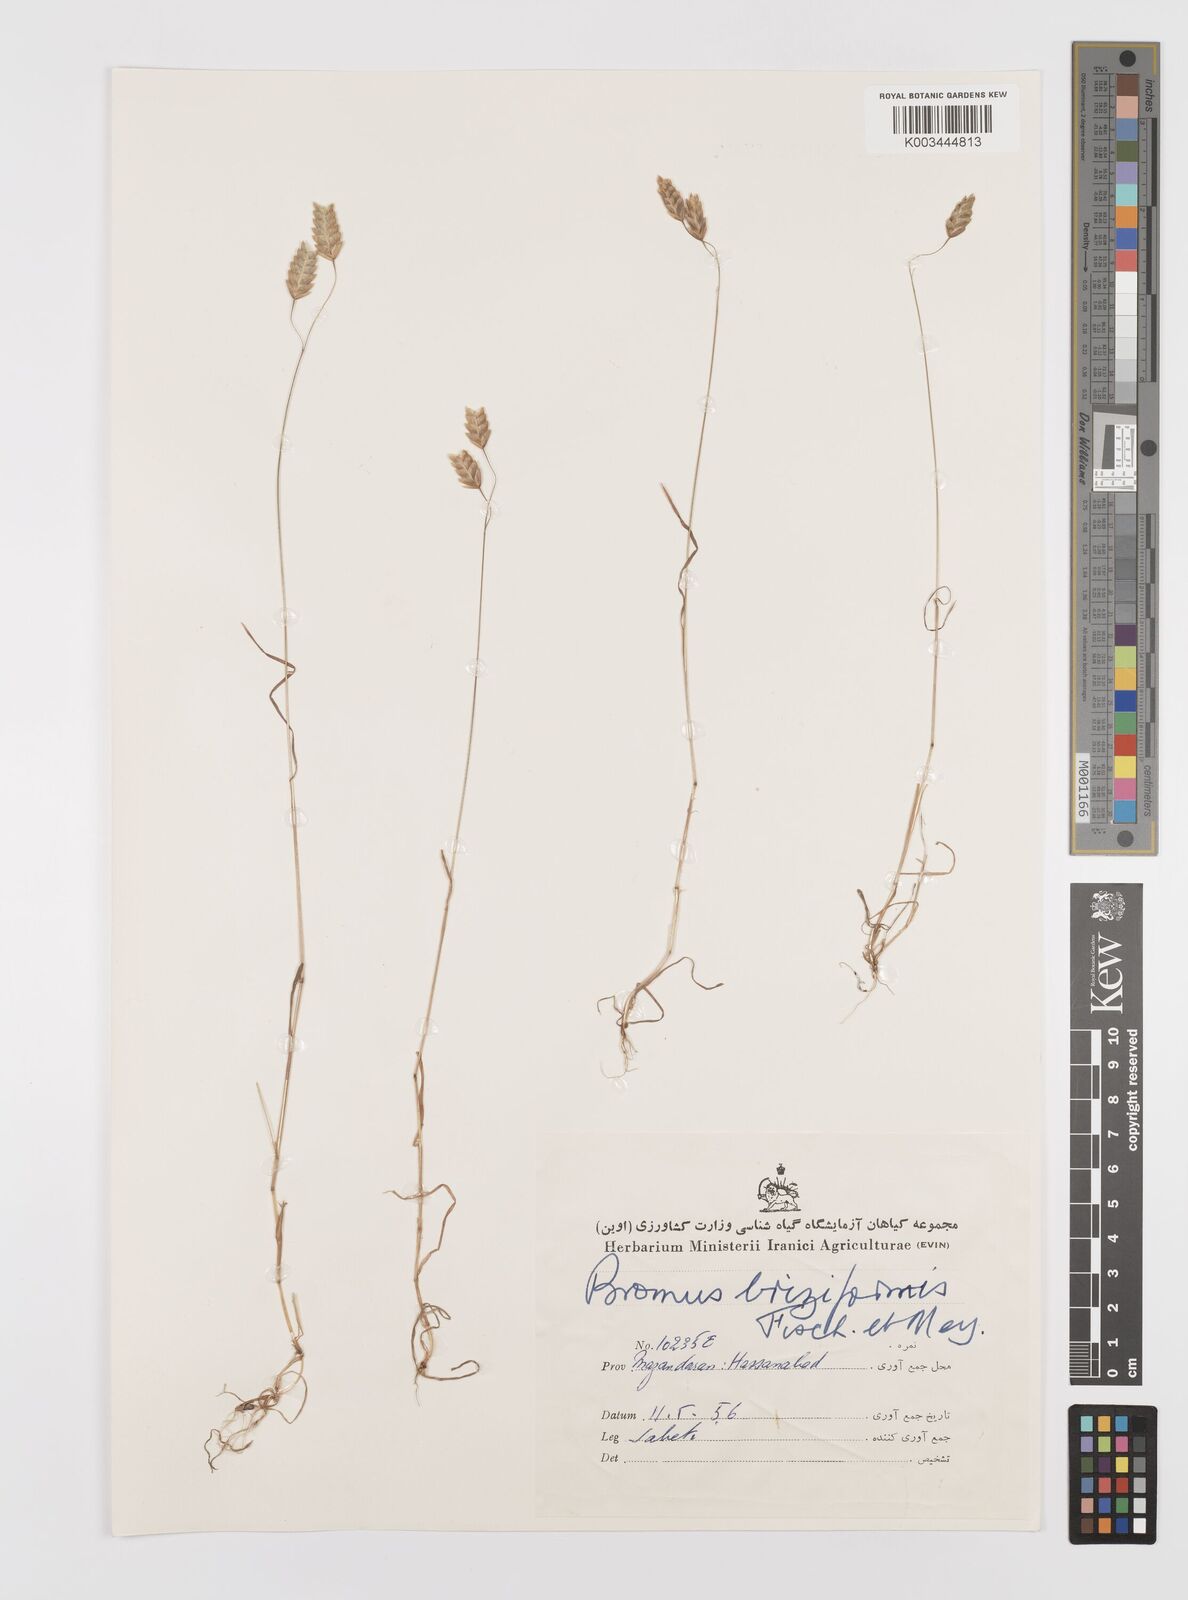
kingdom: Plantae
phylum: Tracheophyta
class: Liliopsida
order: Poales
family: Poaceae
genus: Bromus
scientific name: Bromus briziformis
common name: Rattlesnake brome
